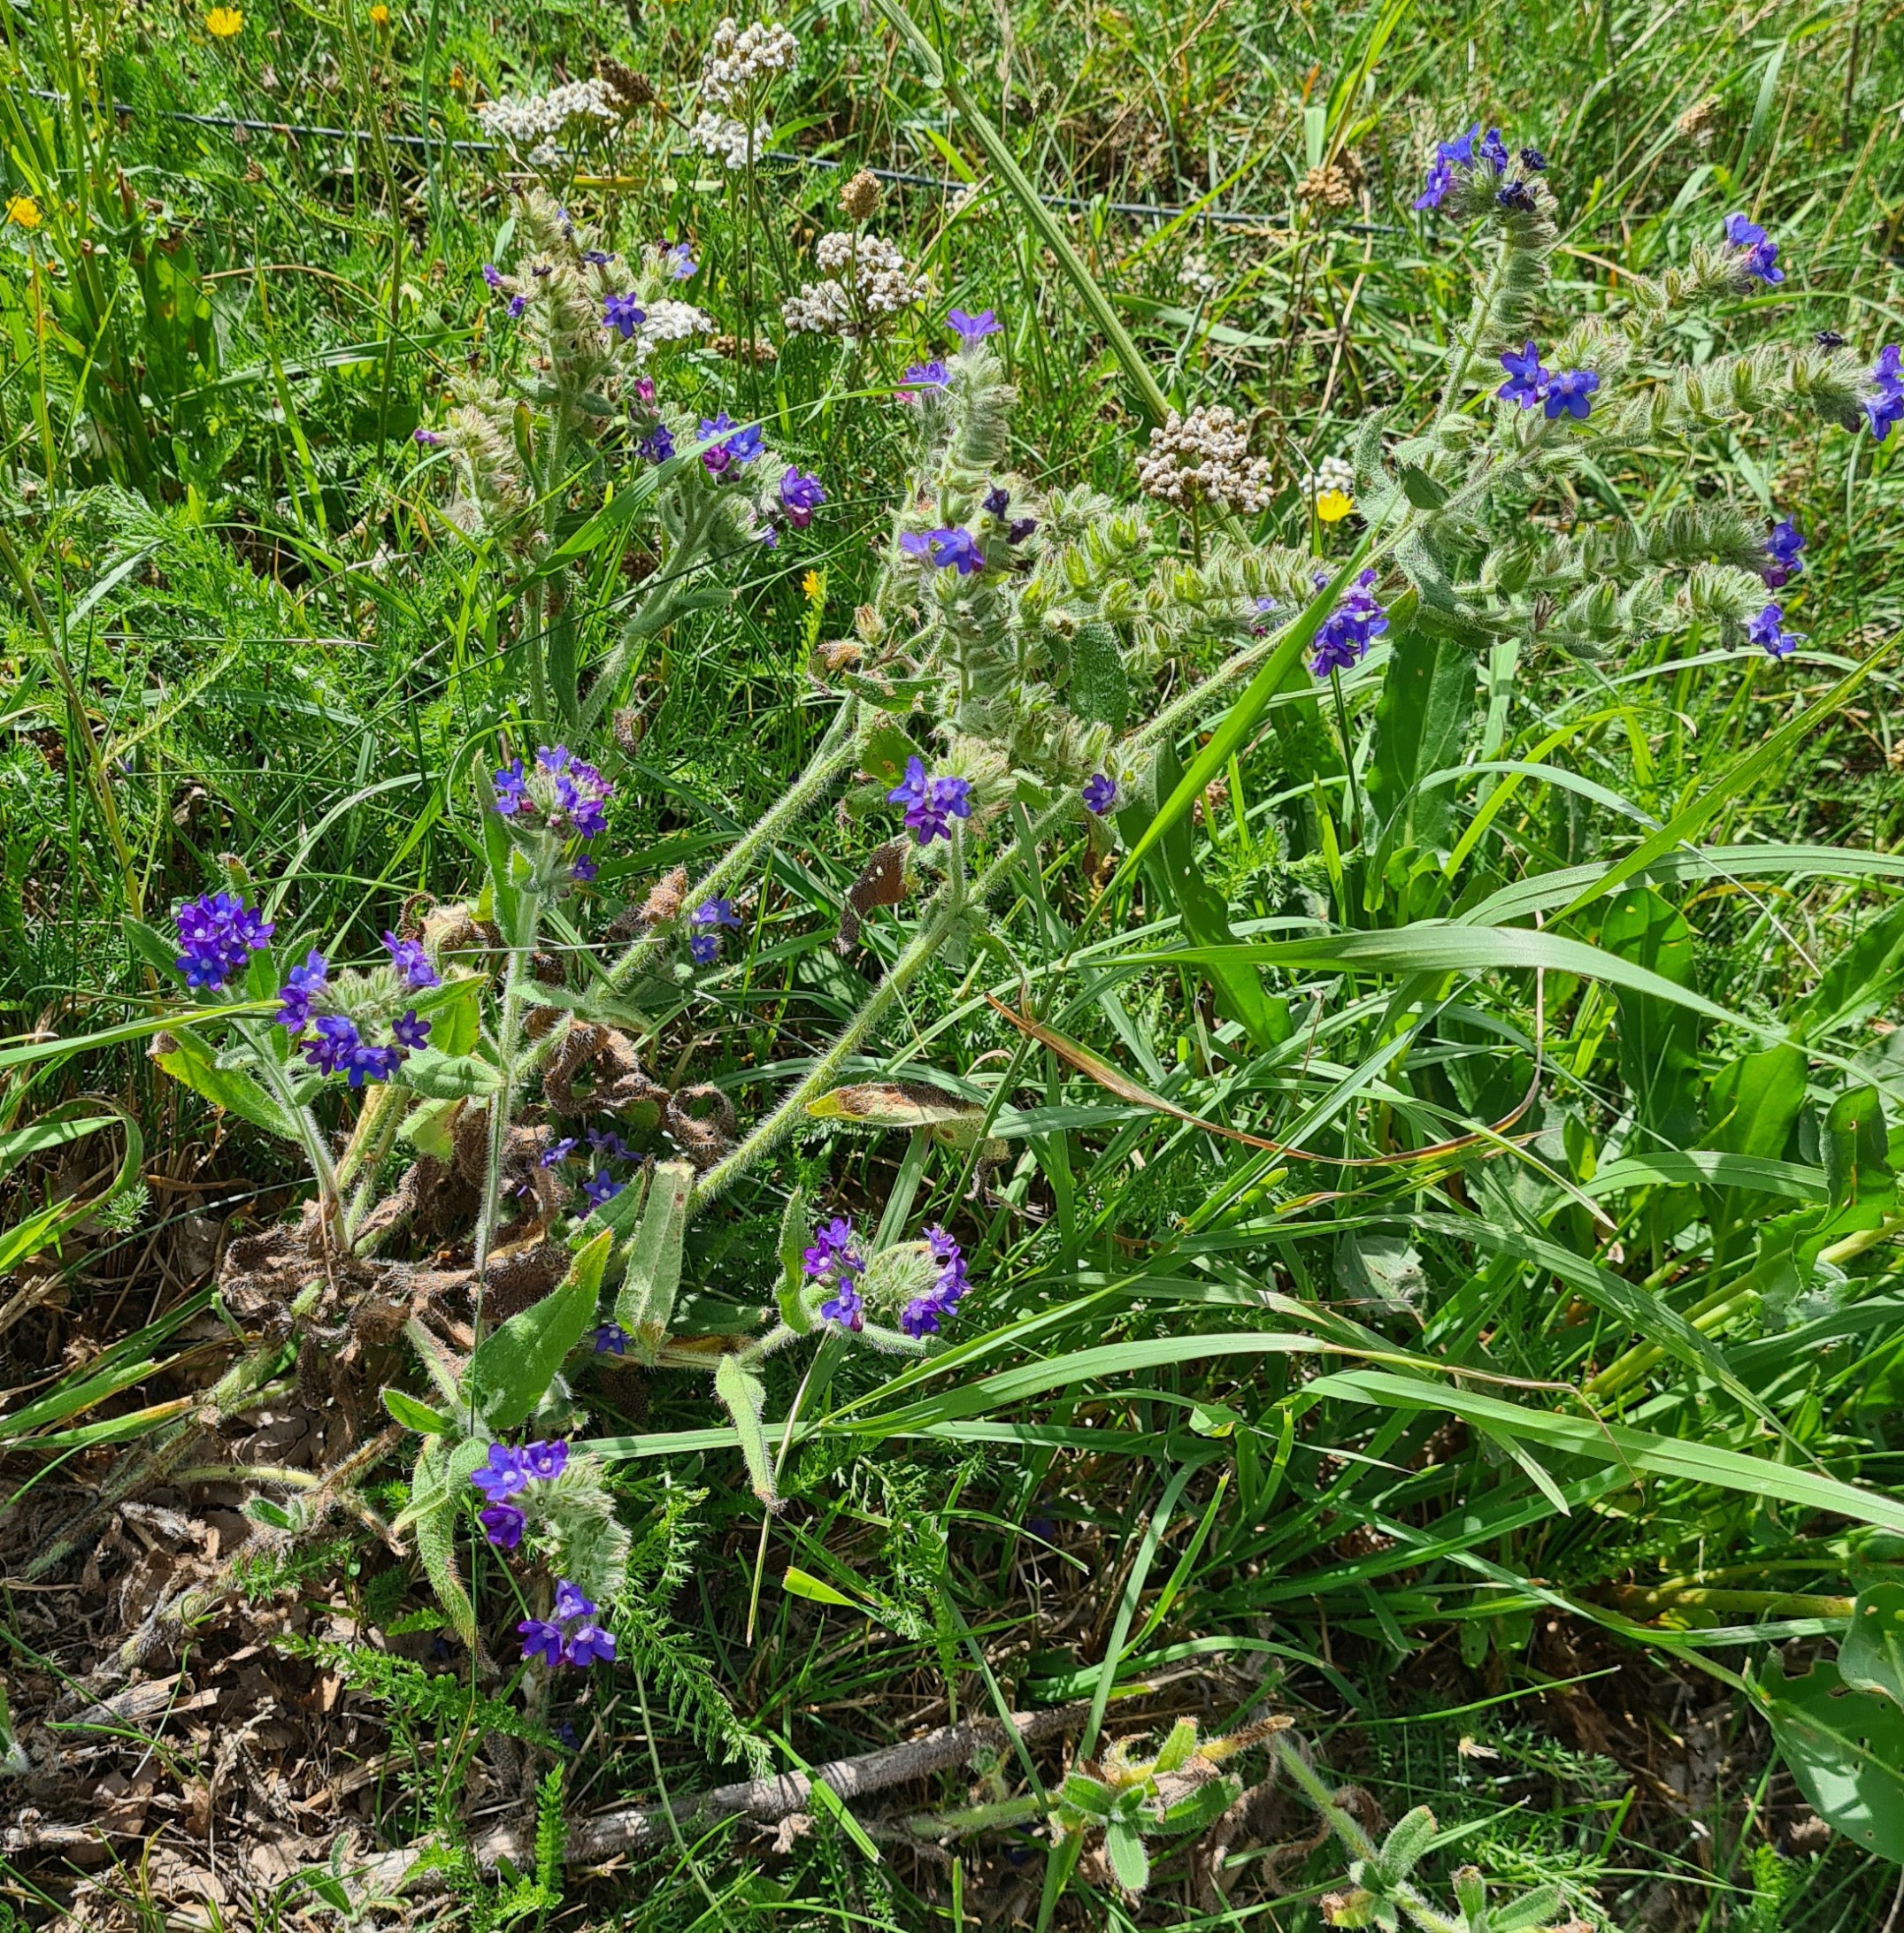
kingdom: Plantae
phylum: Tracheophyta
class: Magnoliopsida
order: Boraginales
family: Boraginaceae
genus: Anchusa
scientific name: Anchusa officinalis
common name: Læge-oksetunge
